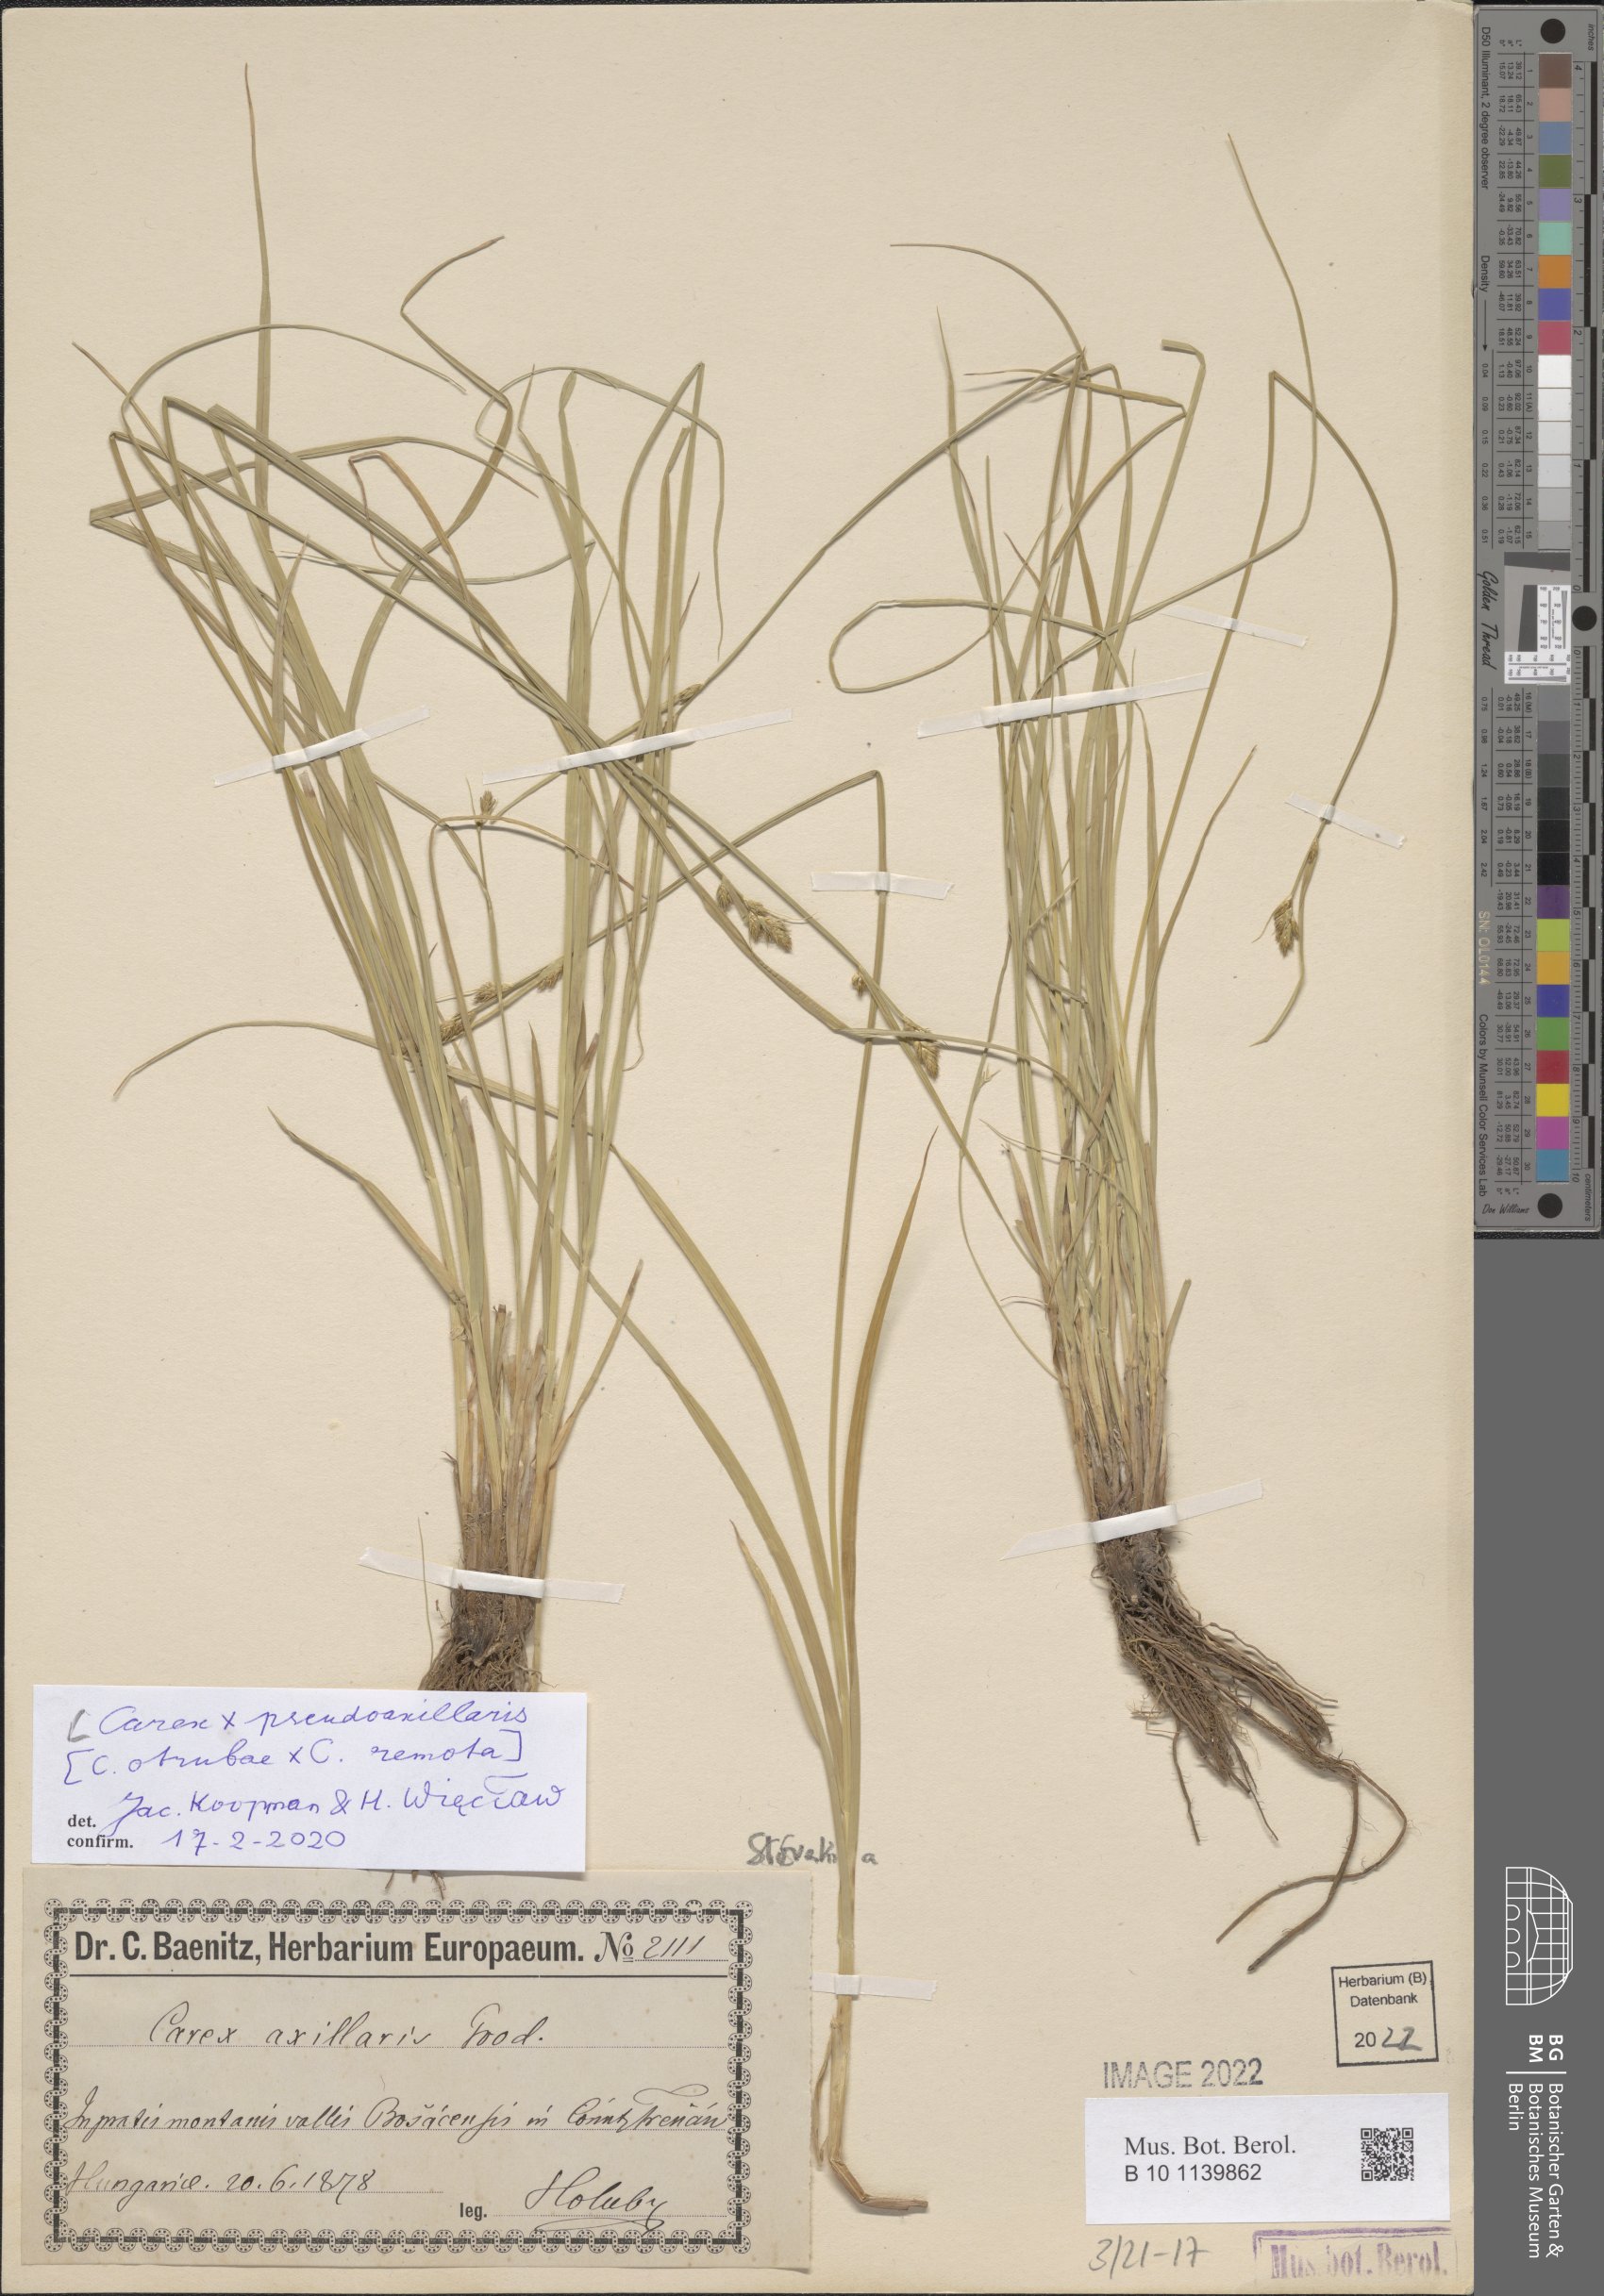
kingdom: Plantae
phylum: Tracheophyta
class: Liliopsida
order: Poales
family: Cyperaceae
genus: Carex
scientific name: Carex pseudoaxillaris
